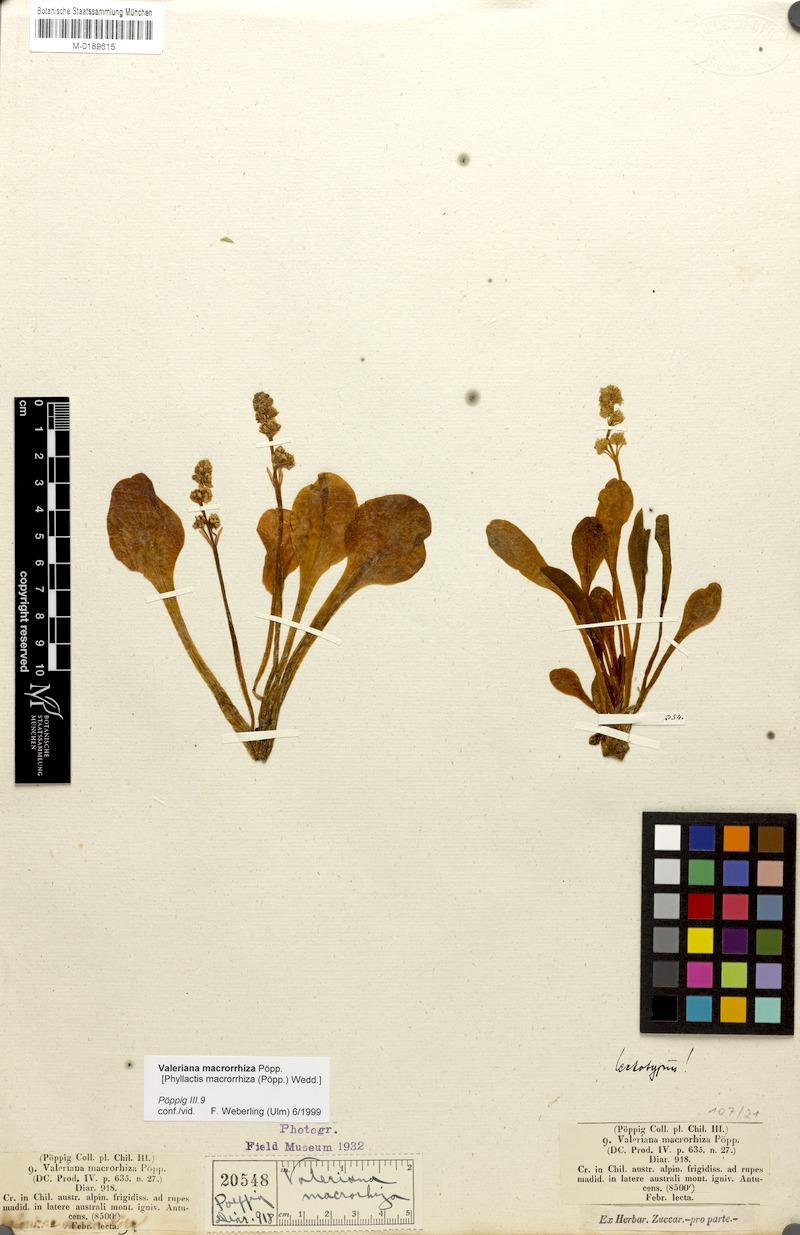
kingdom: Plantae
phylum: Tracheophyta
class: Magnoliopsida
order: Dipsacales
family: Caprifoliaceae
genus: Valeriana
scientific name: Valeriana macrorhiza
